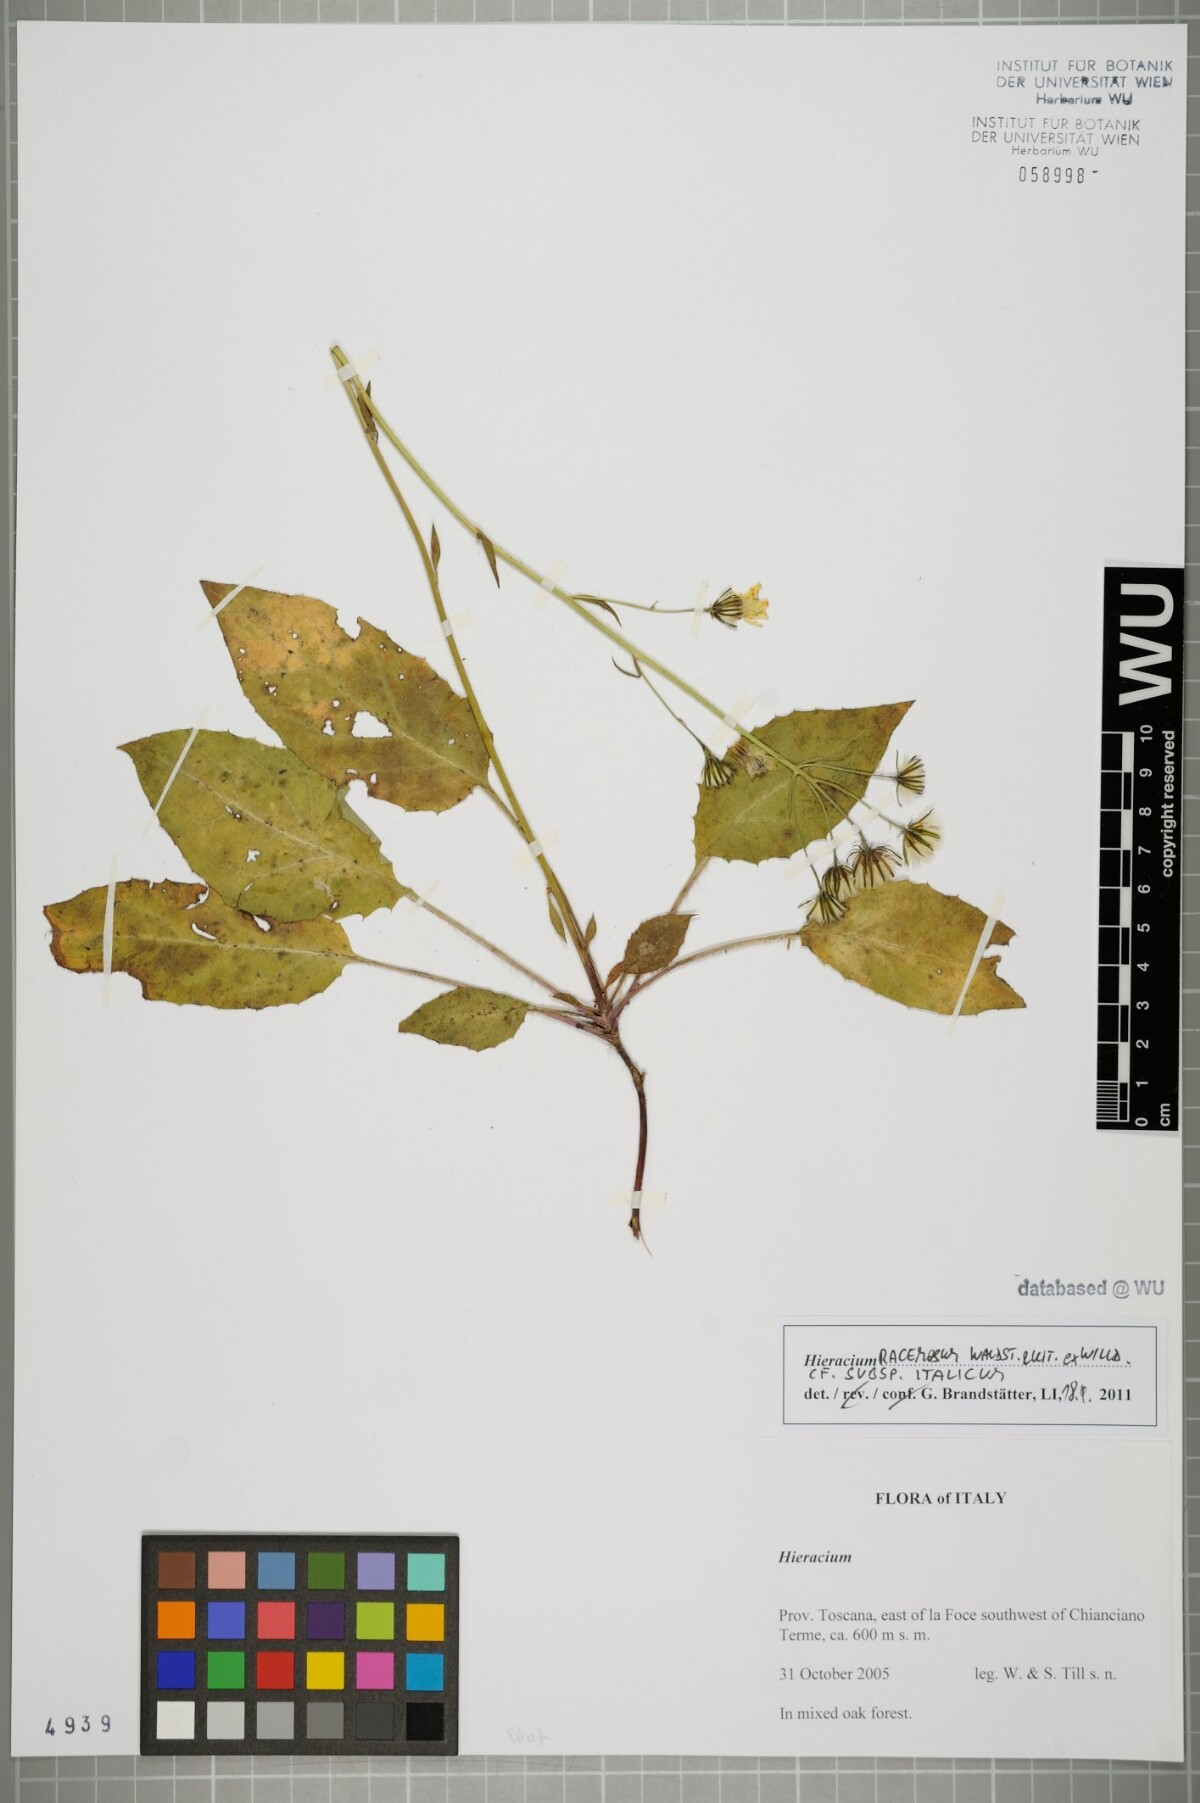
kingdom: Plantae
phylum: Tracheophyta
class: Magnoliopsida
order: Asterales
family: Asteraceae
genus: Hieracium
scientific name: Hieracium racemosum
